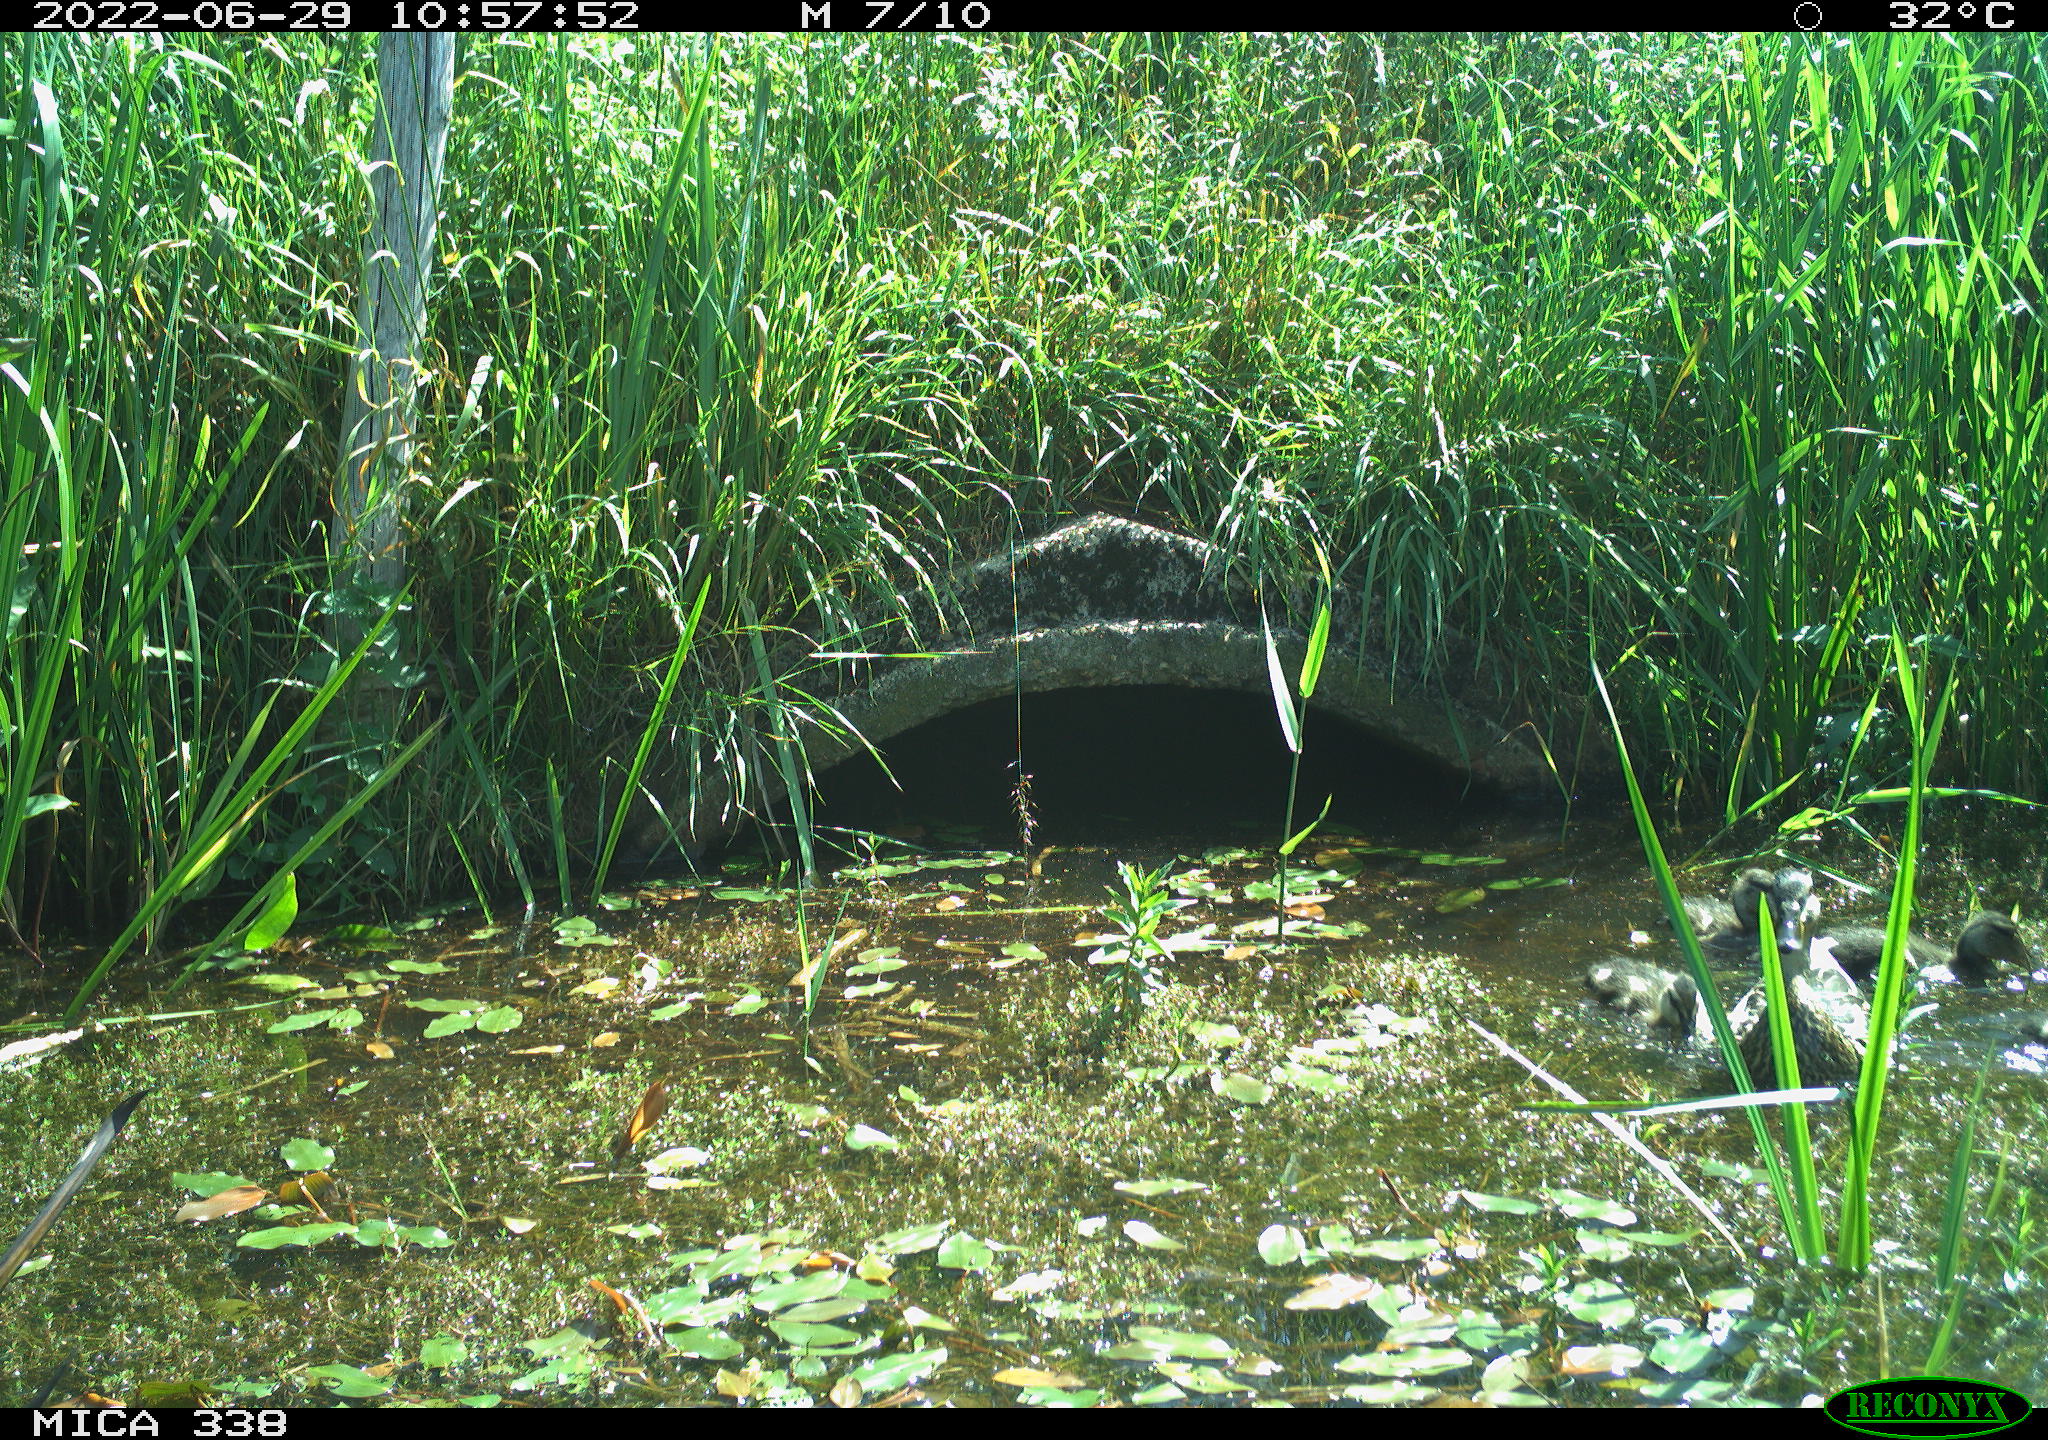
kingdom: Animalia
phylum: Chordata
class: Aves
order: Anseriformes
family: Anatidae
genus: Anas
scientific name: Anas platyrhynchos
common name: Mallard
